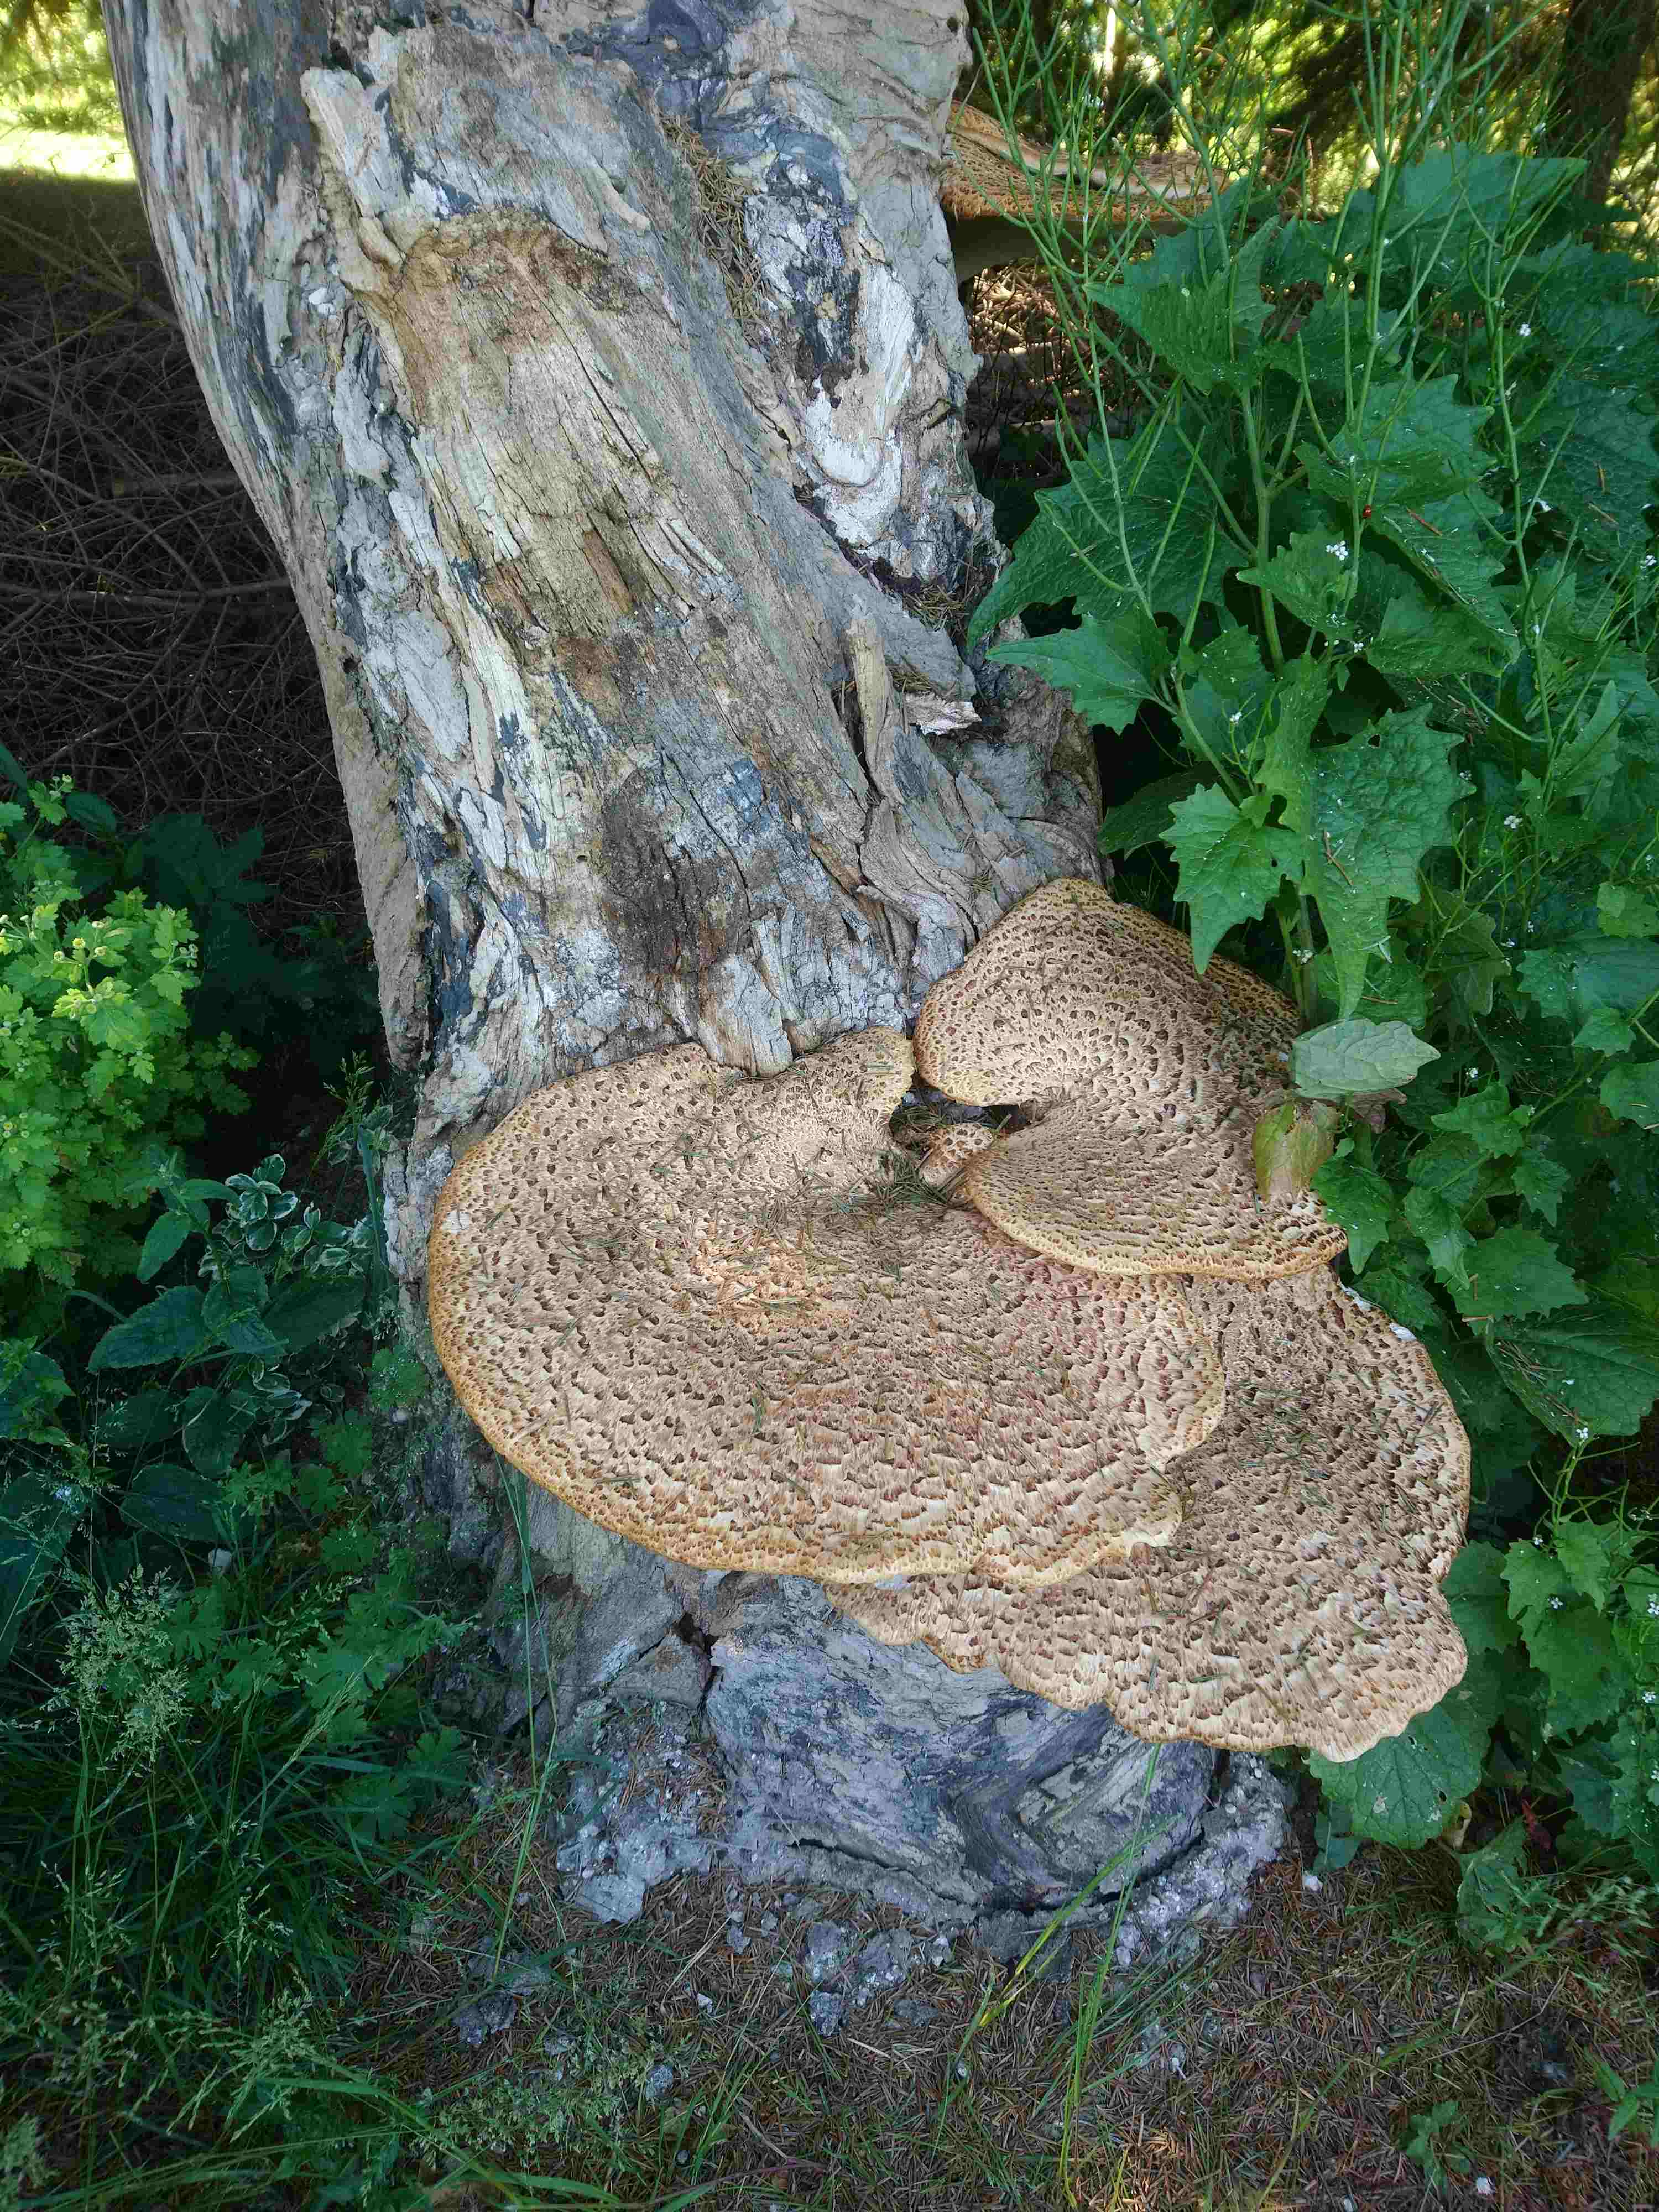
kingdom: Fungi
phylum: Basidiomycota
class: Agaricomycetes
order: Polyporales
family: Polyporaceae
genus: Cerioporus
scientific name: Cerioporus squamosus
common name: skællet stilkporesvamp
